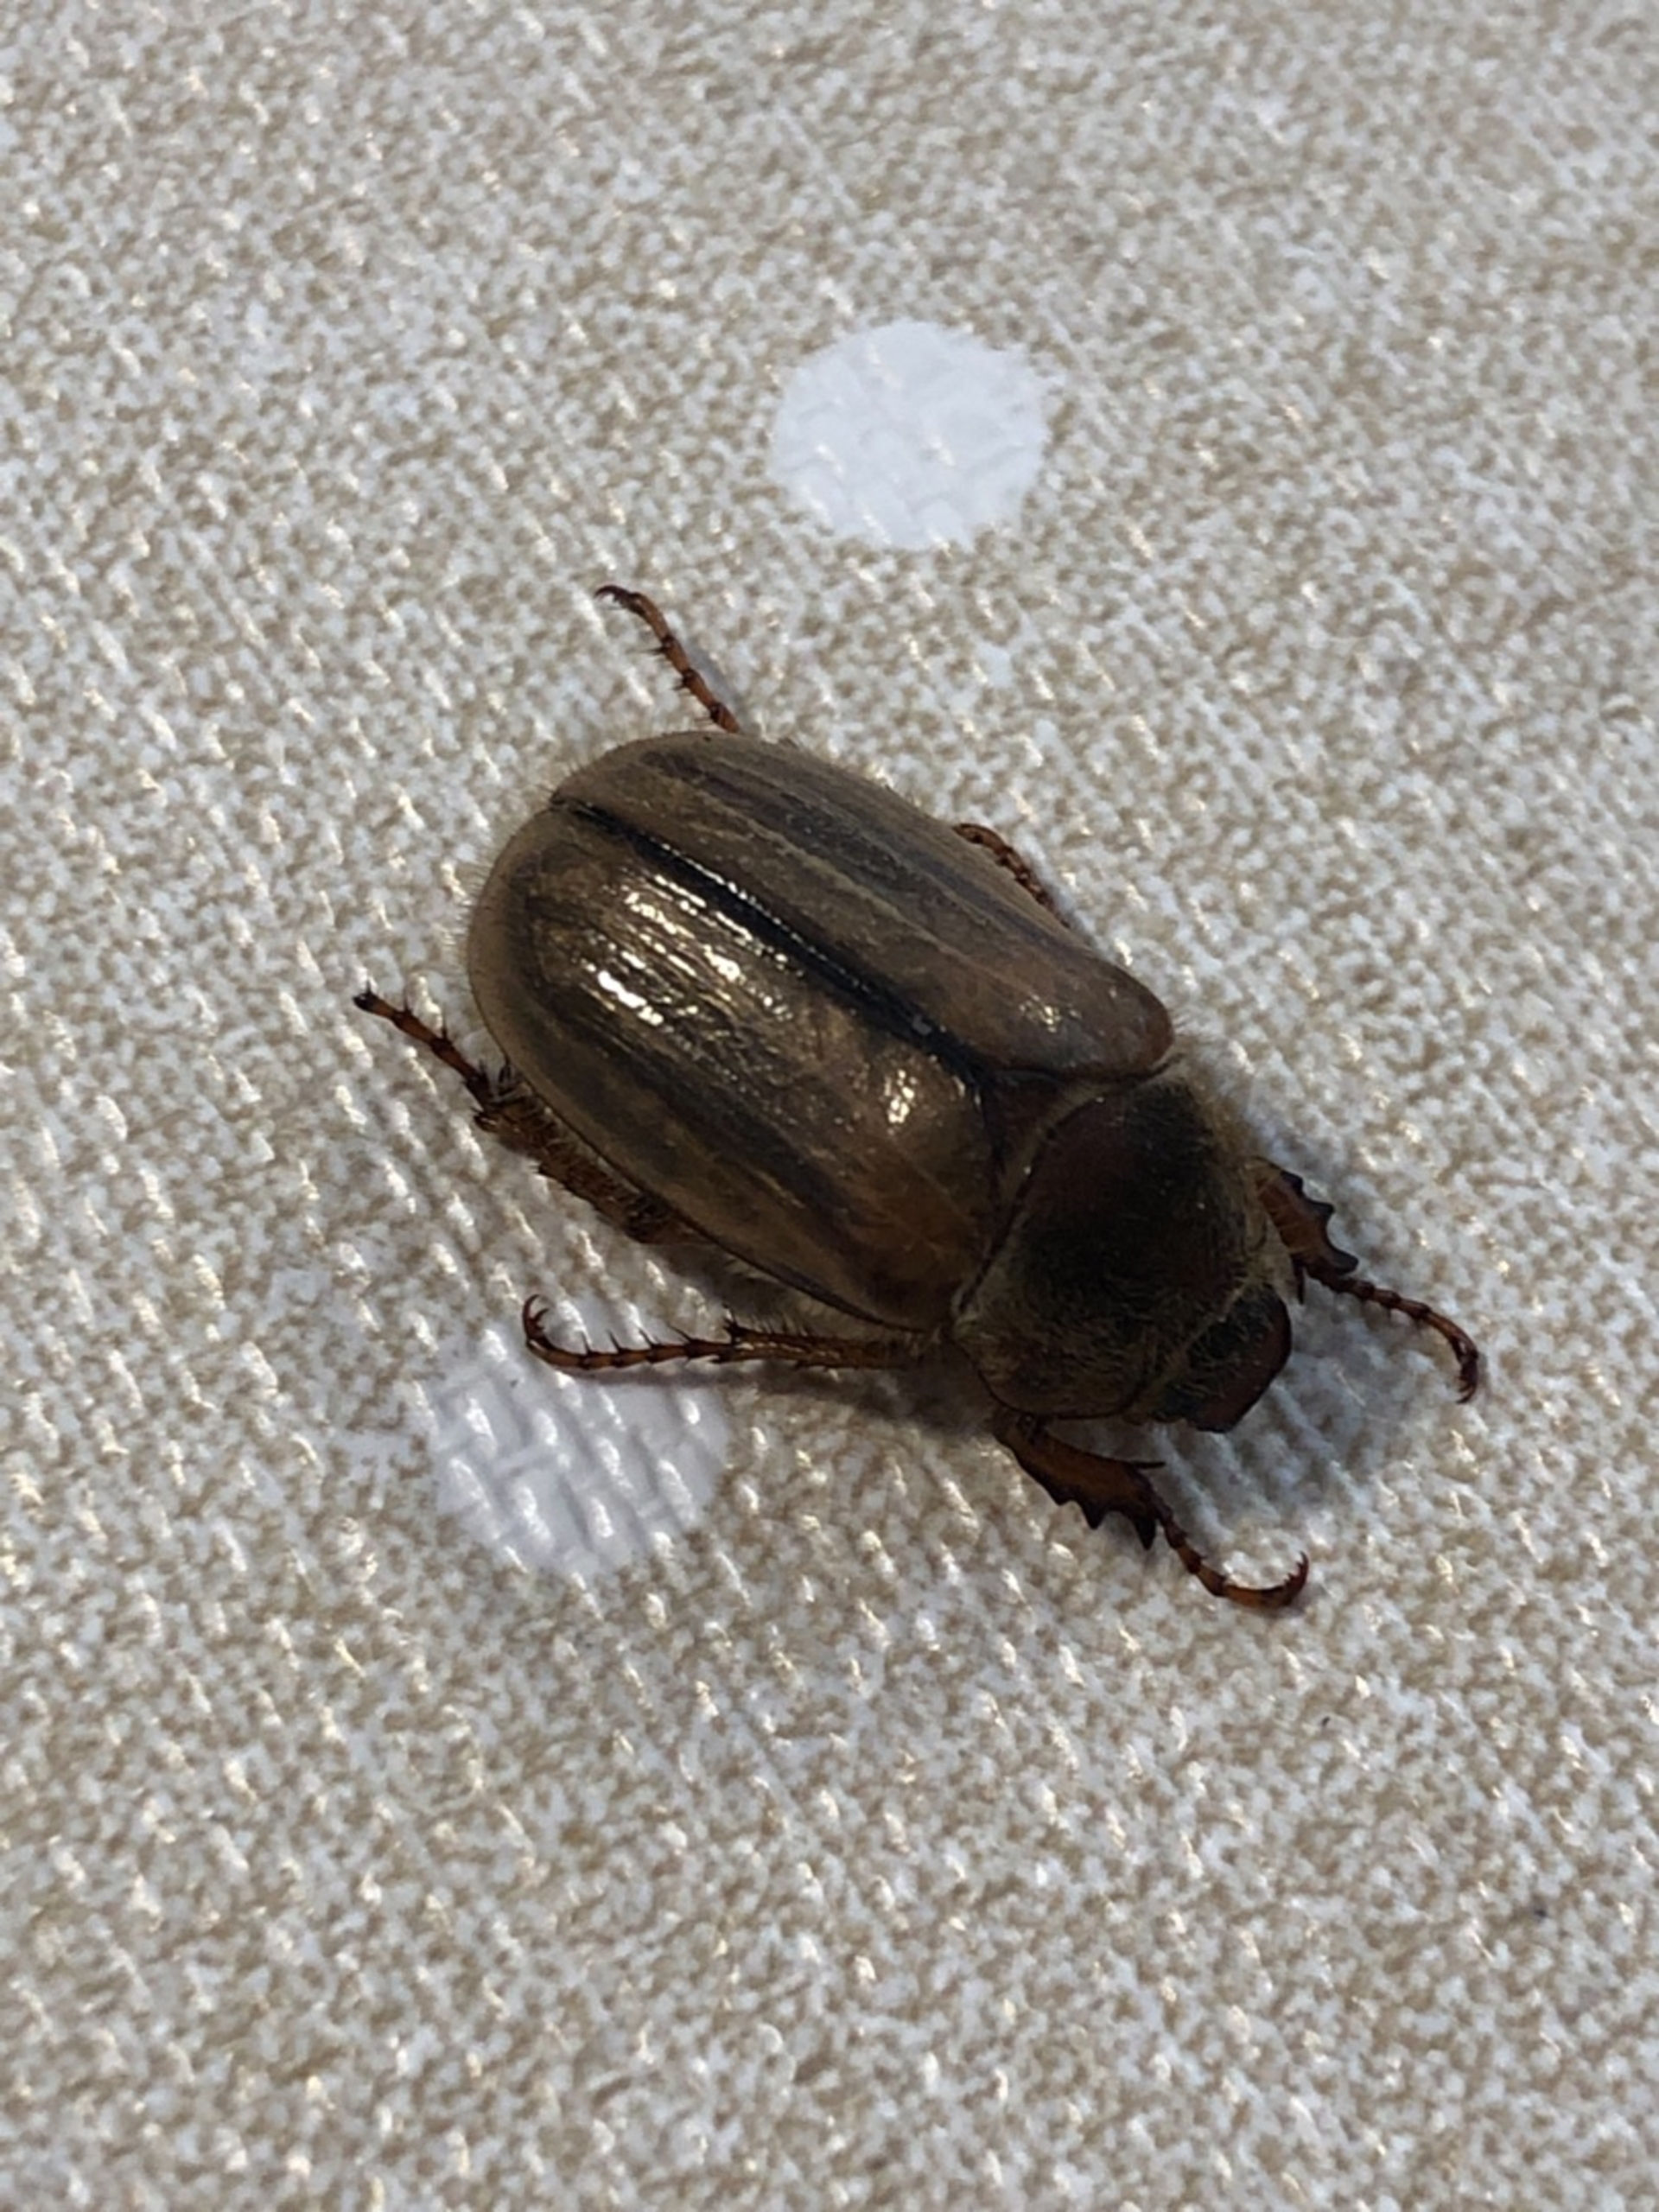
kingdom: Animalia
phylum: Arthropoda
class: Insecta
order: Coleoptera
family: Scarabaeidae
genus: Amphimallon
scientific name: Amphimallon solstitiale
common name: Sankthansoldenborre
